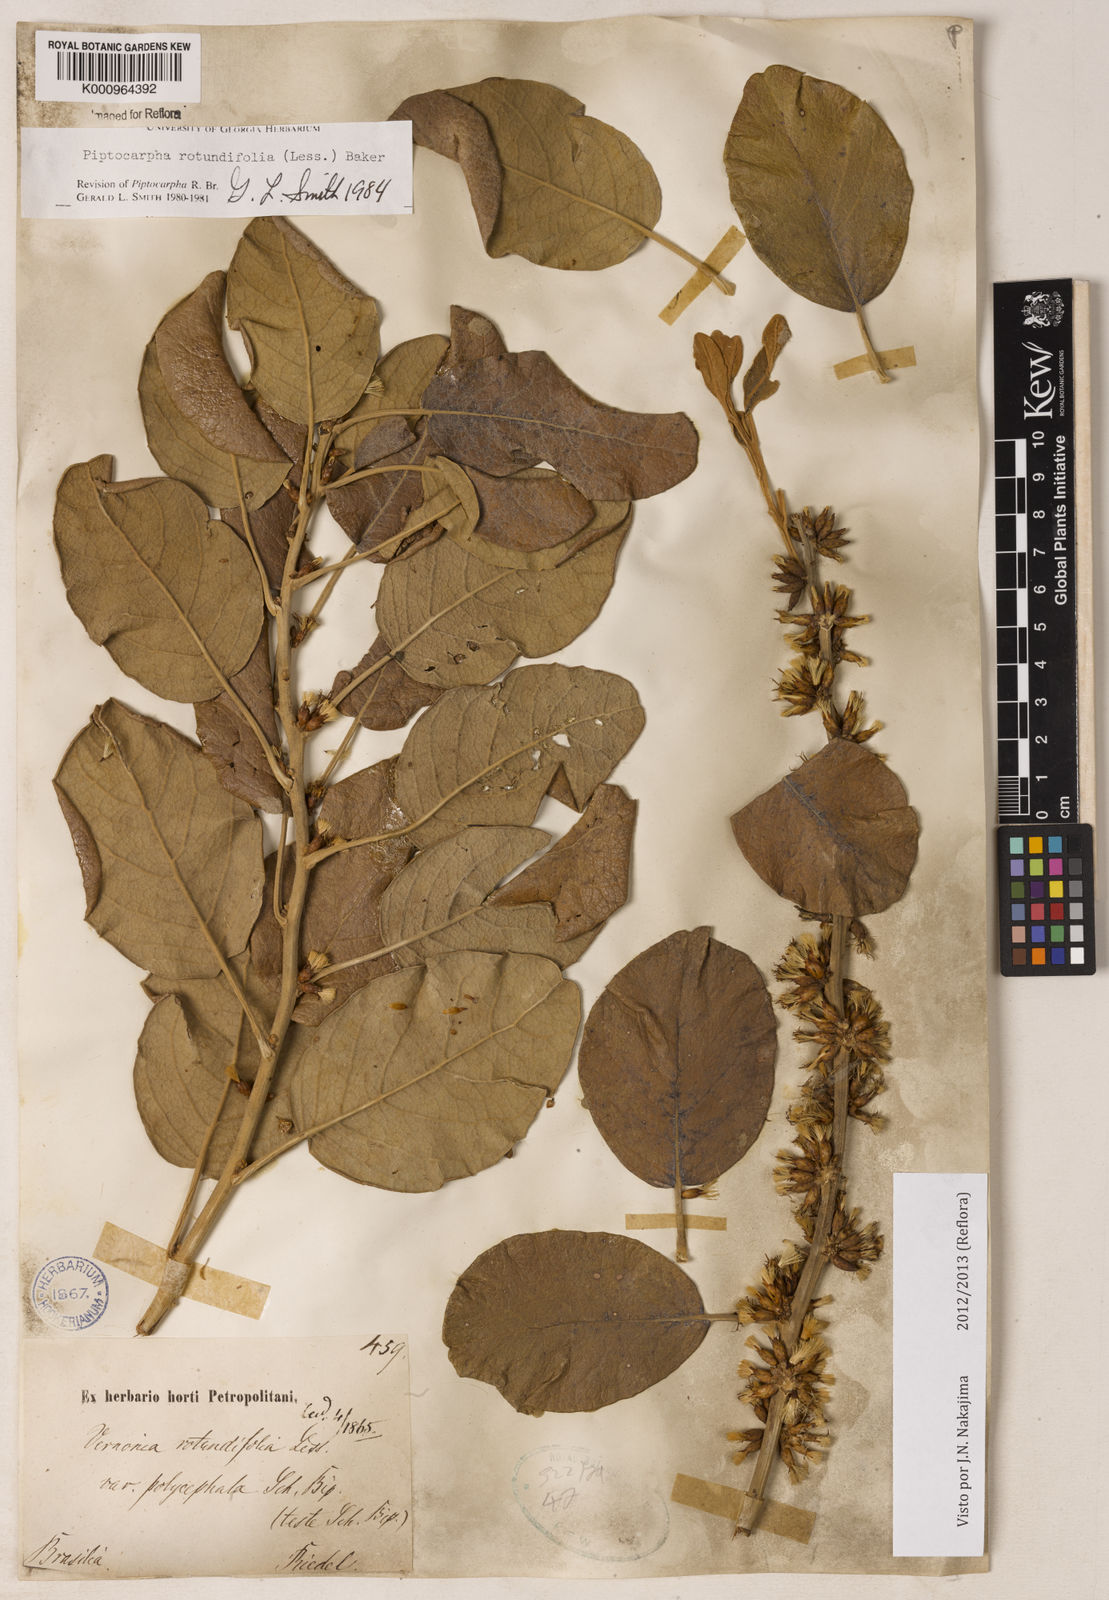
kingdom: Plantae
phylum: Tracheophyta
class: Magnoliopsida
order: Asterales
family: Asteraceae
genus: Piptocarpha
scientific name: Piptocarpha rotundifolia
